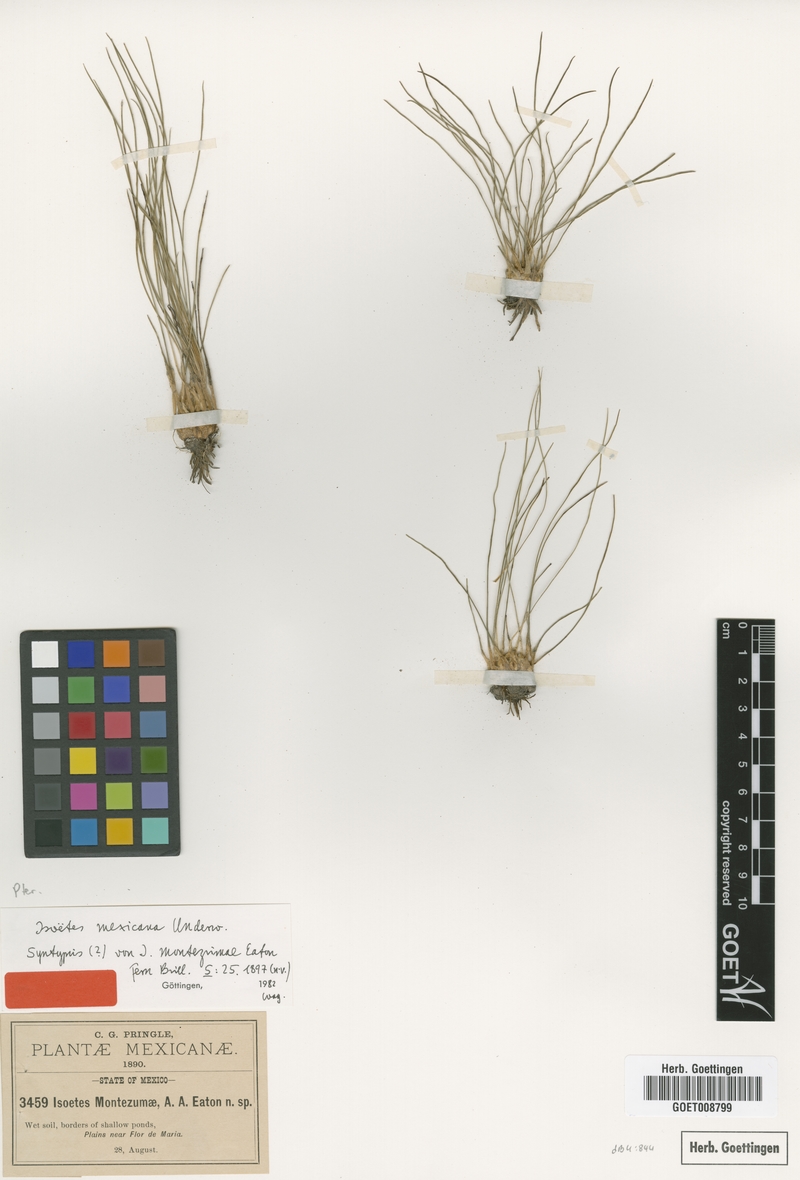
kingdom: Plantae
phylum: Tracheophyta
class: Lycopodiopsida
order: Isoetales
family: Isoetaceae
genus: Isoetes
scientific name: Isoetes mexicana
